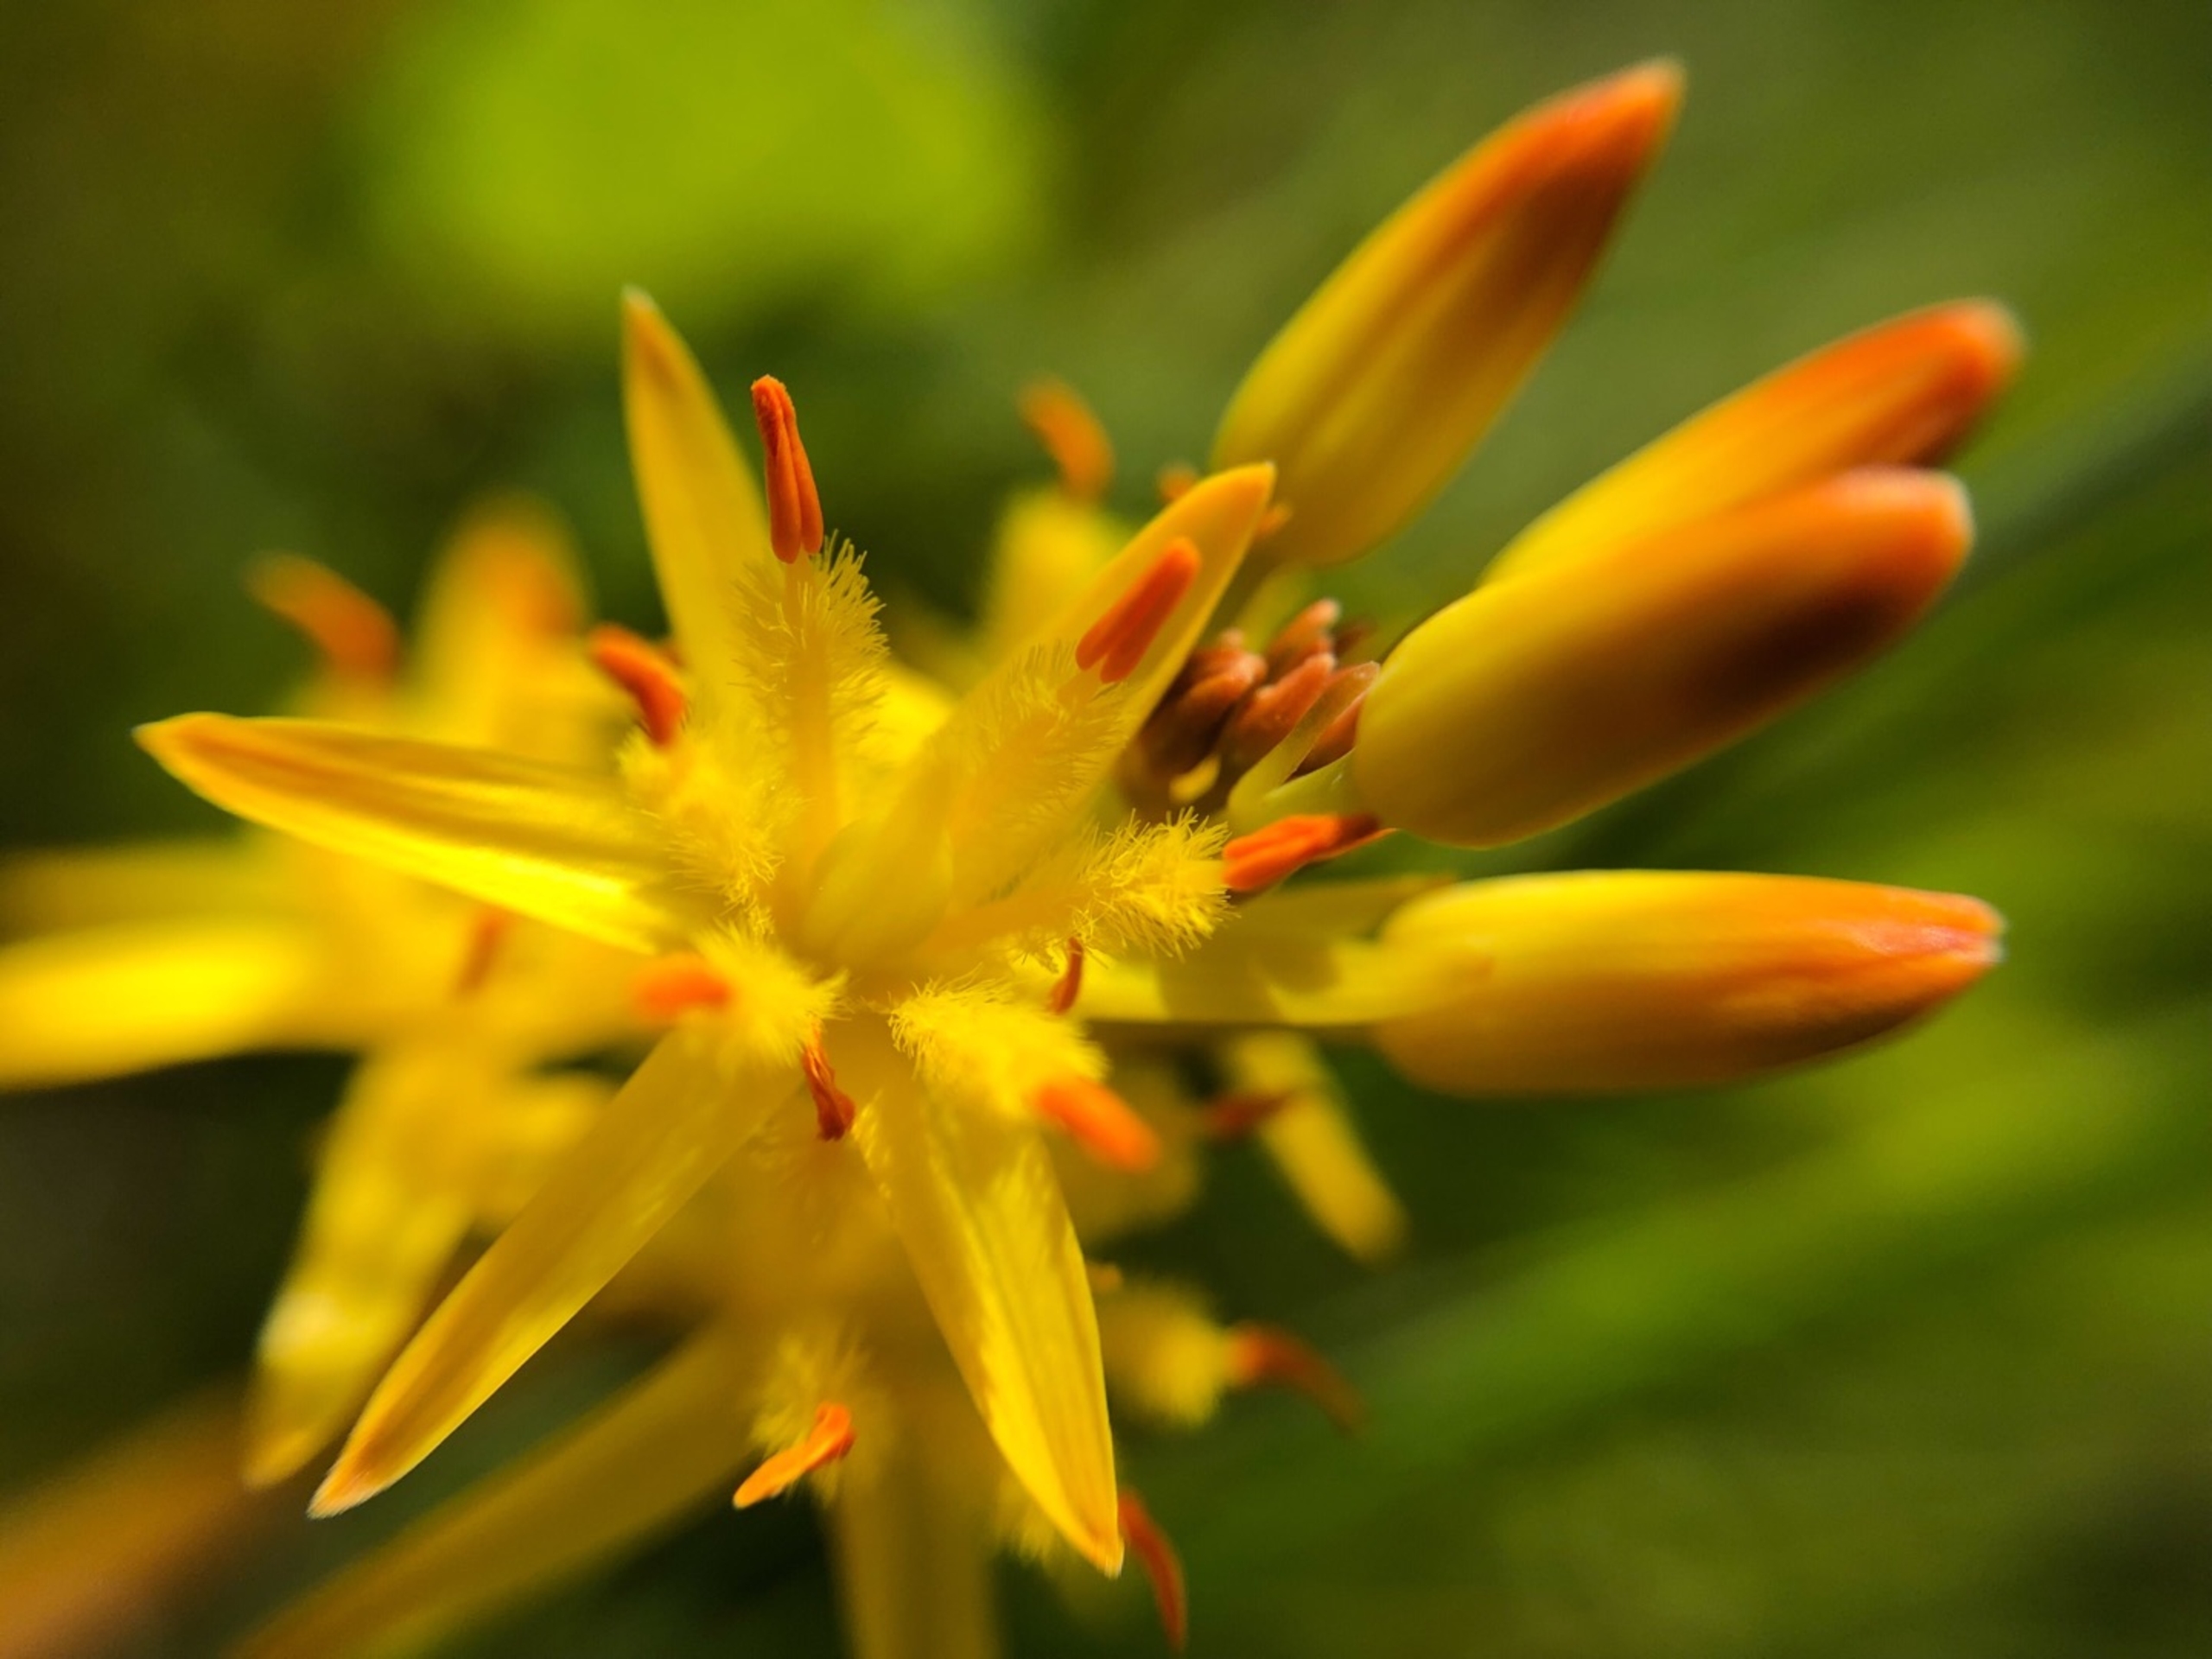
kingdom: Plantae
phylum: Tracheophyta
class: Liliopsida
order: Dioscoreales
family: Nartheciaceae
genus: Narthecium
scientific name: Narthecium ossifragum
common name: Benbræk
